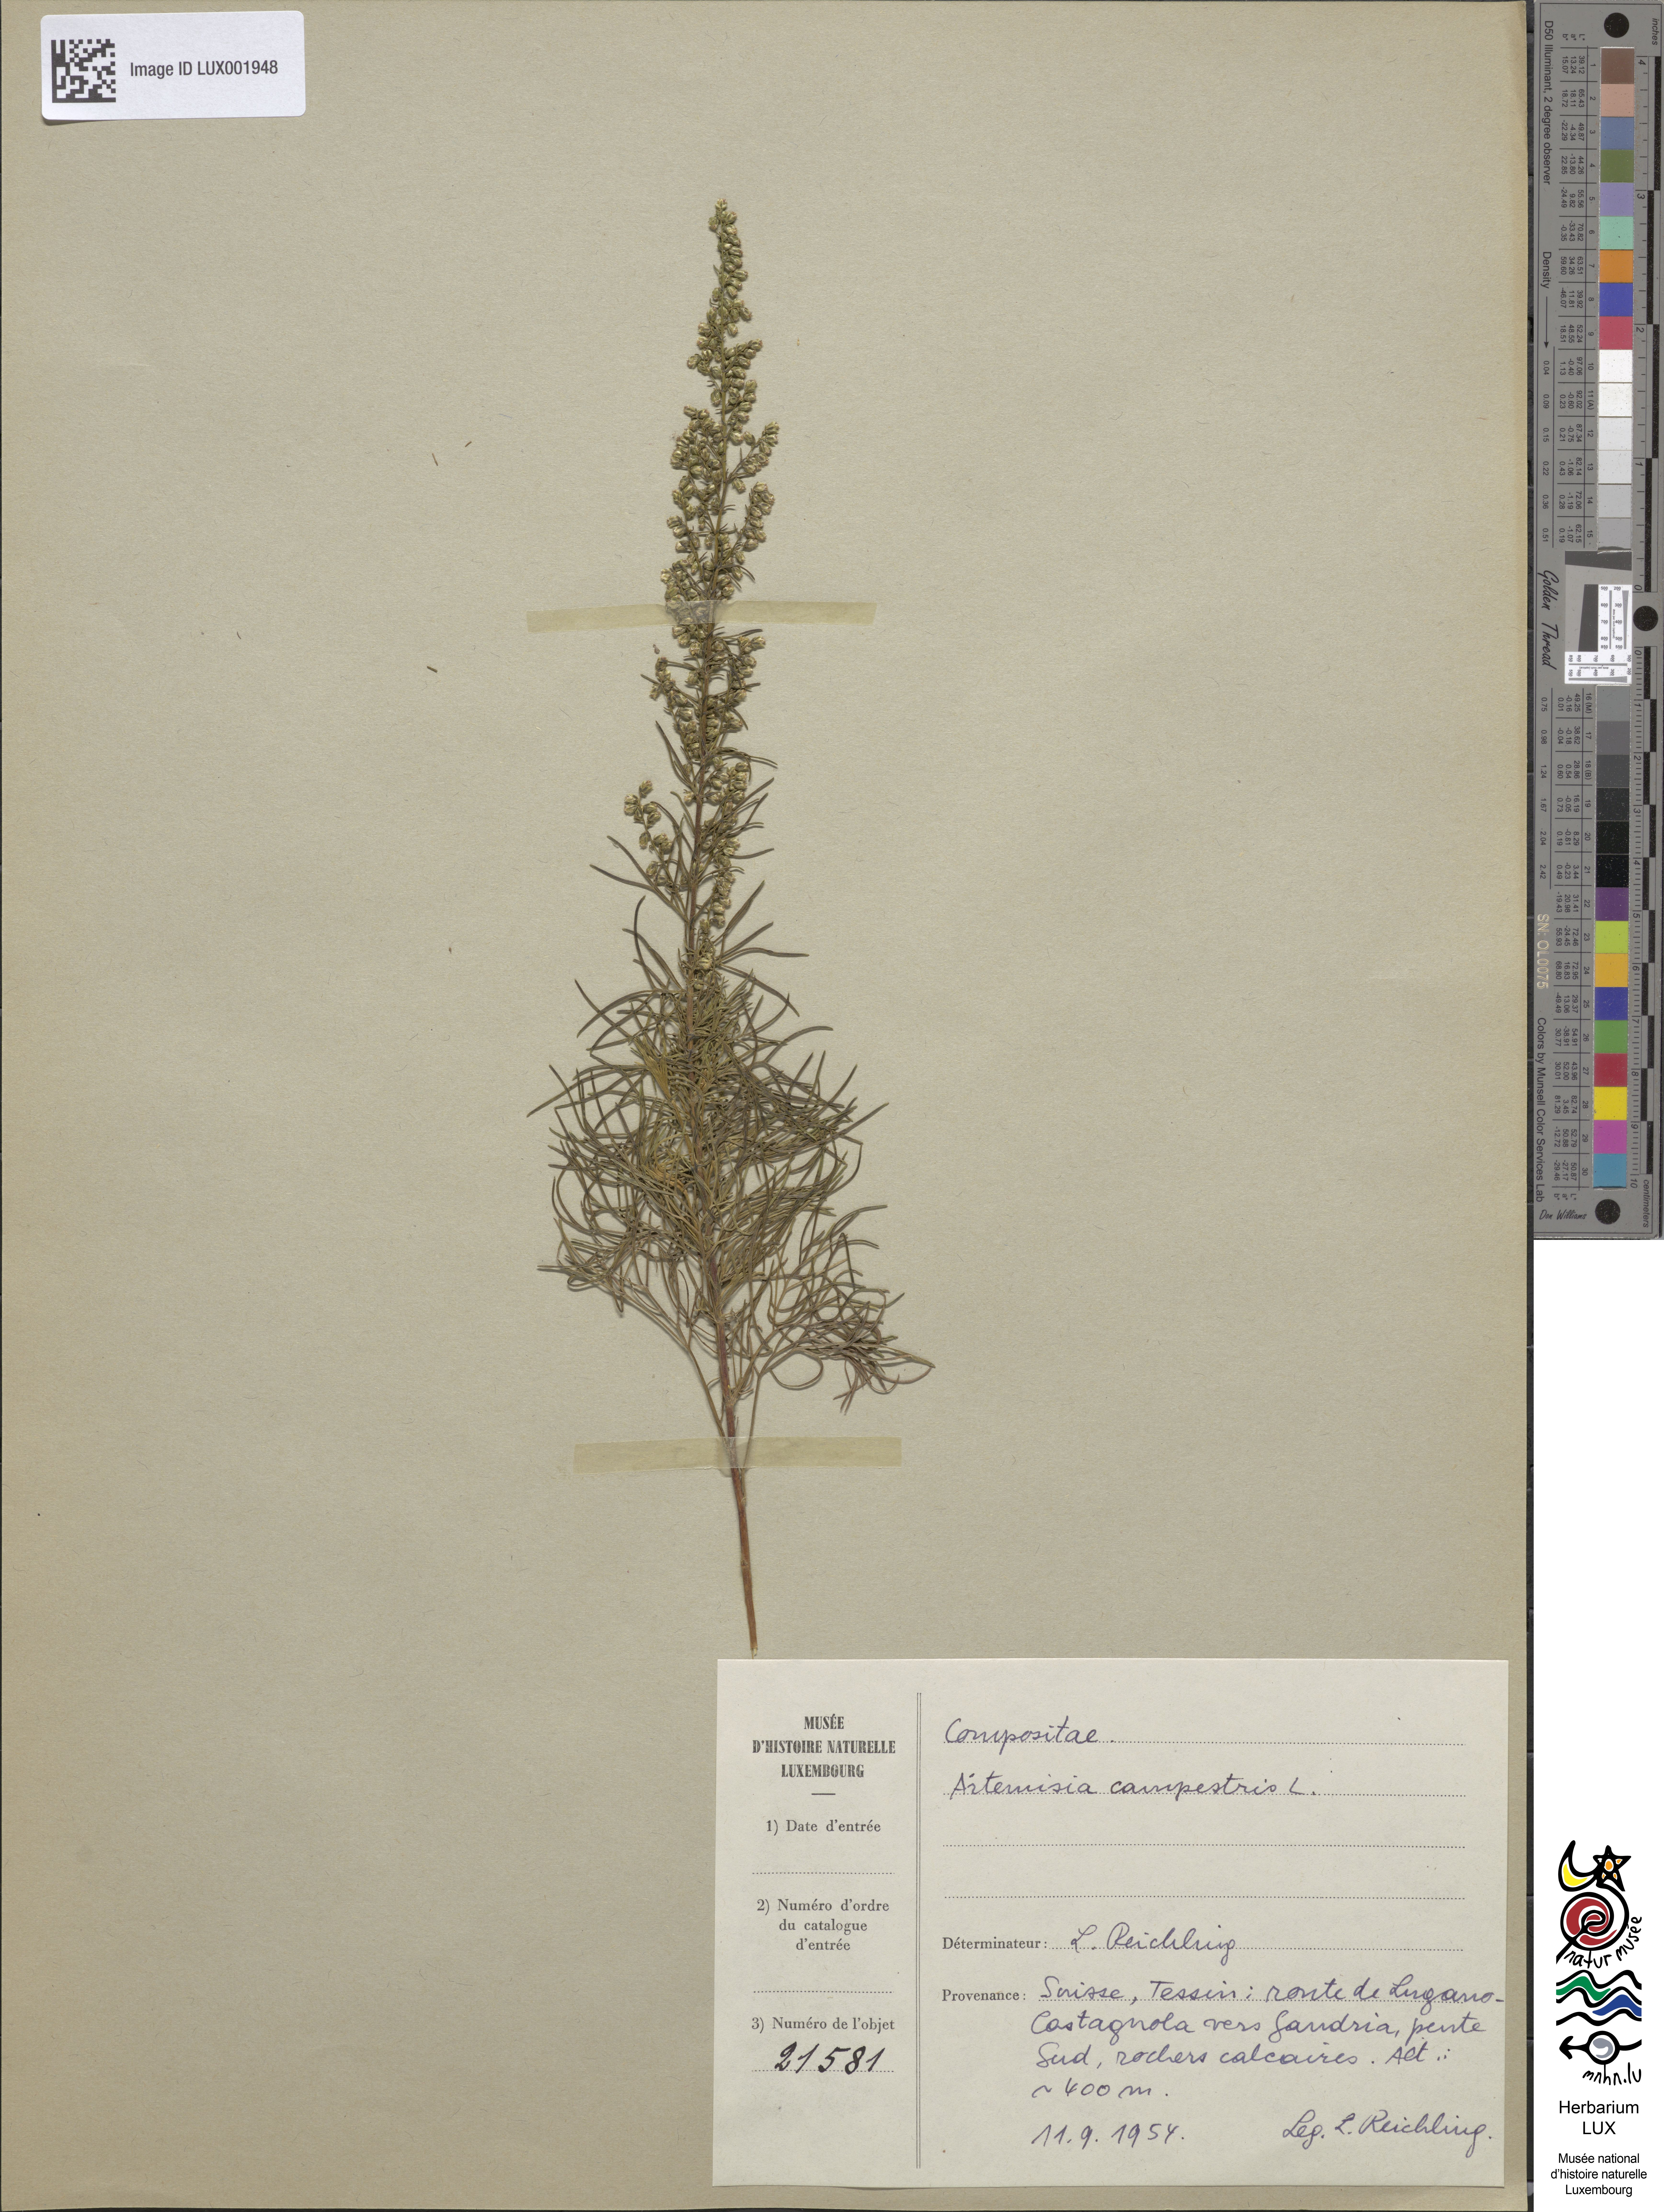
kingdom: Plantae
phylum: Tracheophyta
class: Magnoliopsida
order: Asterales
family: Asteraceae
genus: Artemisia
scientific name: Artemisia campestris
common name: Field wormwood
